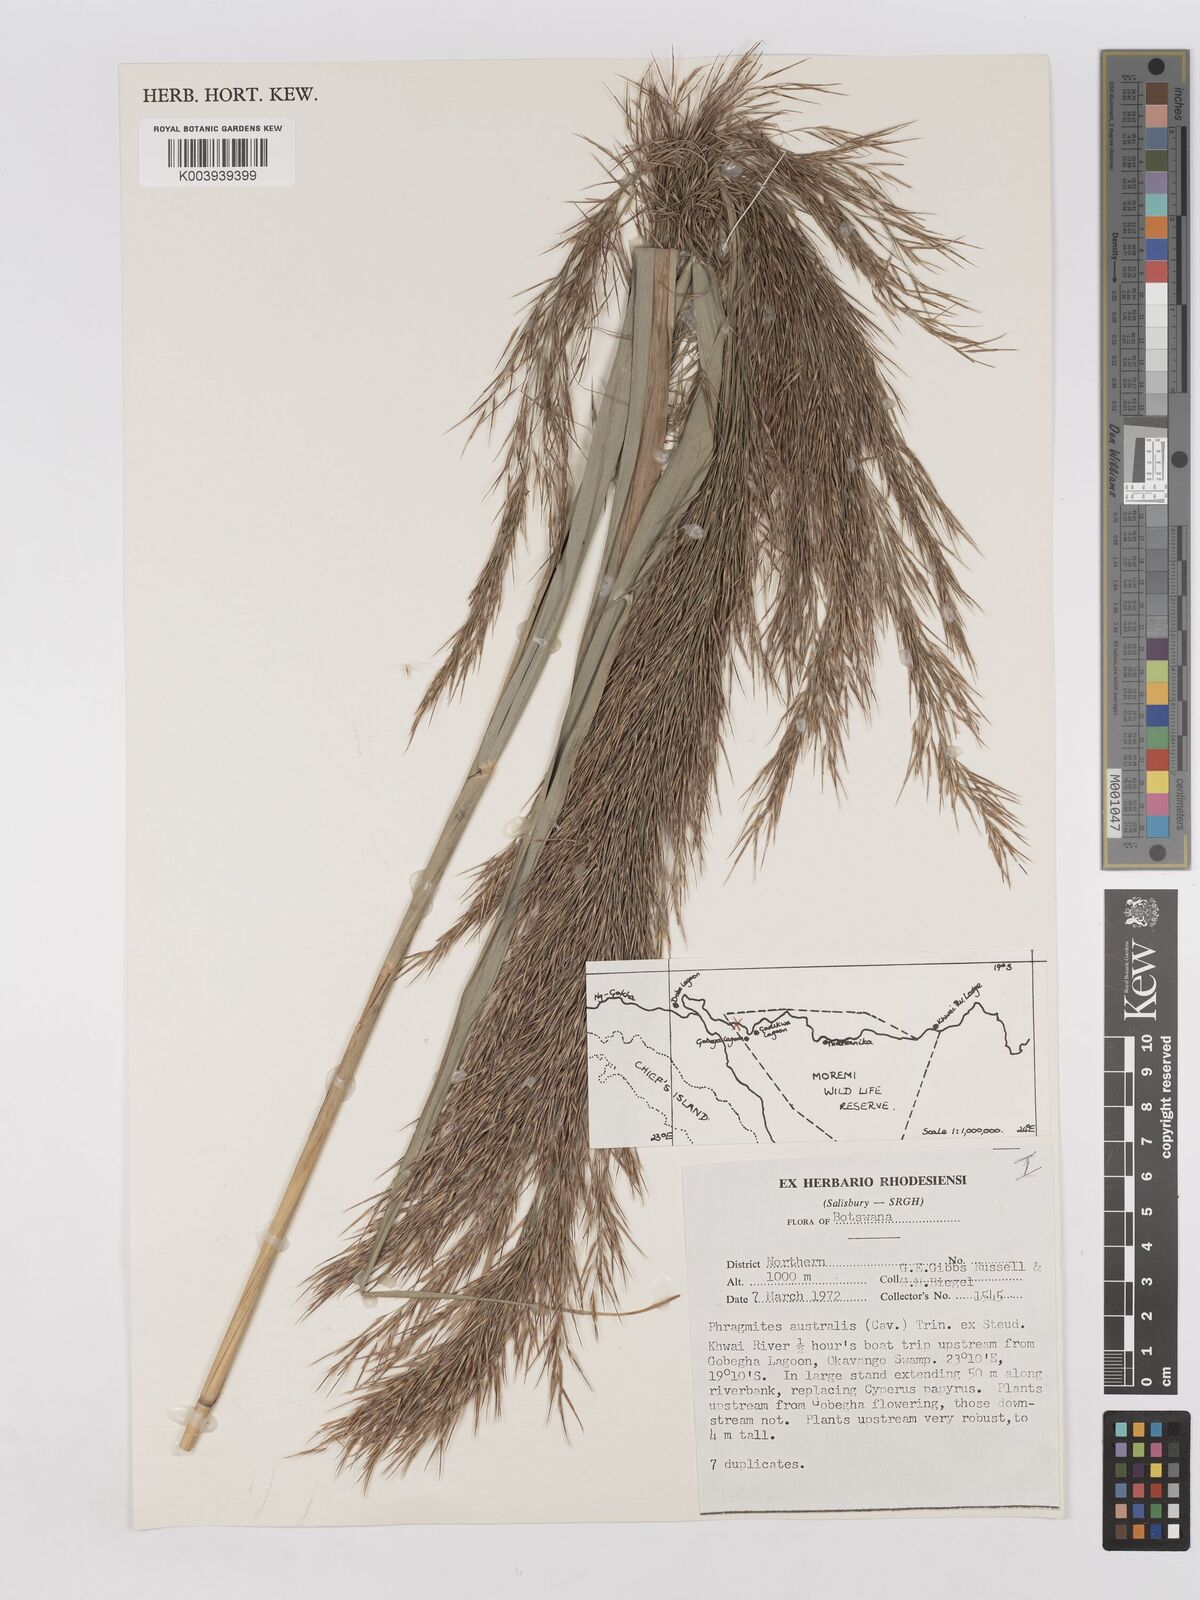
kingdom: Plantae
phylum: Tracheophyta
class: Liliopsida
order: Poales
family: Poaceae
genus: Phragmites
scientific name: Phragmites australis
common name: Common reed
